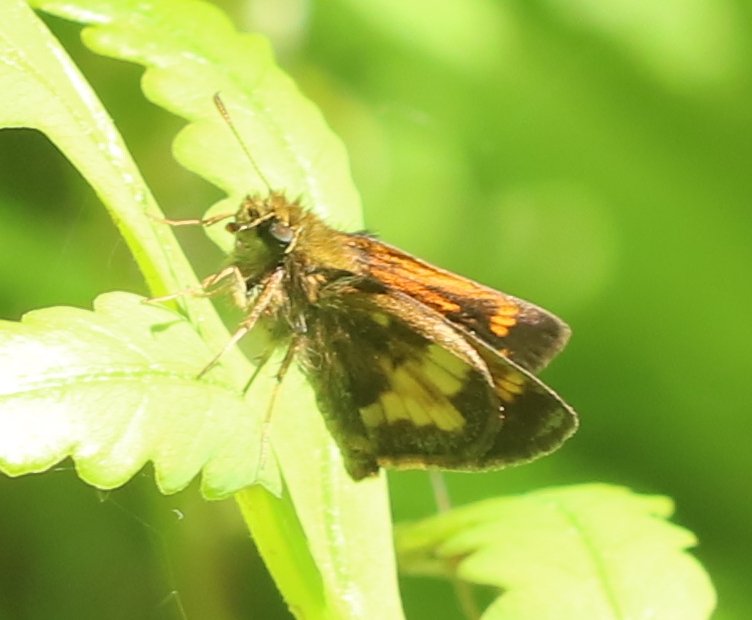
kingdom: Animalia
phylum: Arthropoda
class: Insecta
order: Lepidoptera
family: Hesperiidae
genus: Lon
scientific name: Lon hobomok
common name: Hobomok Skipper
